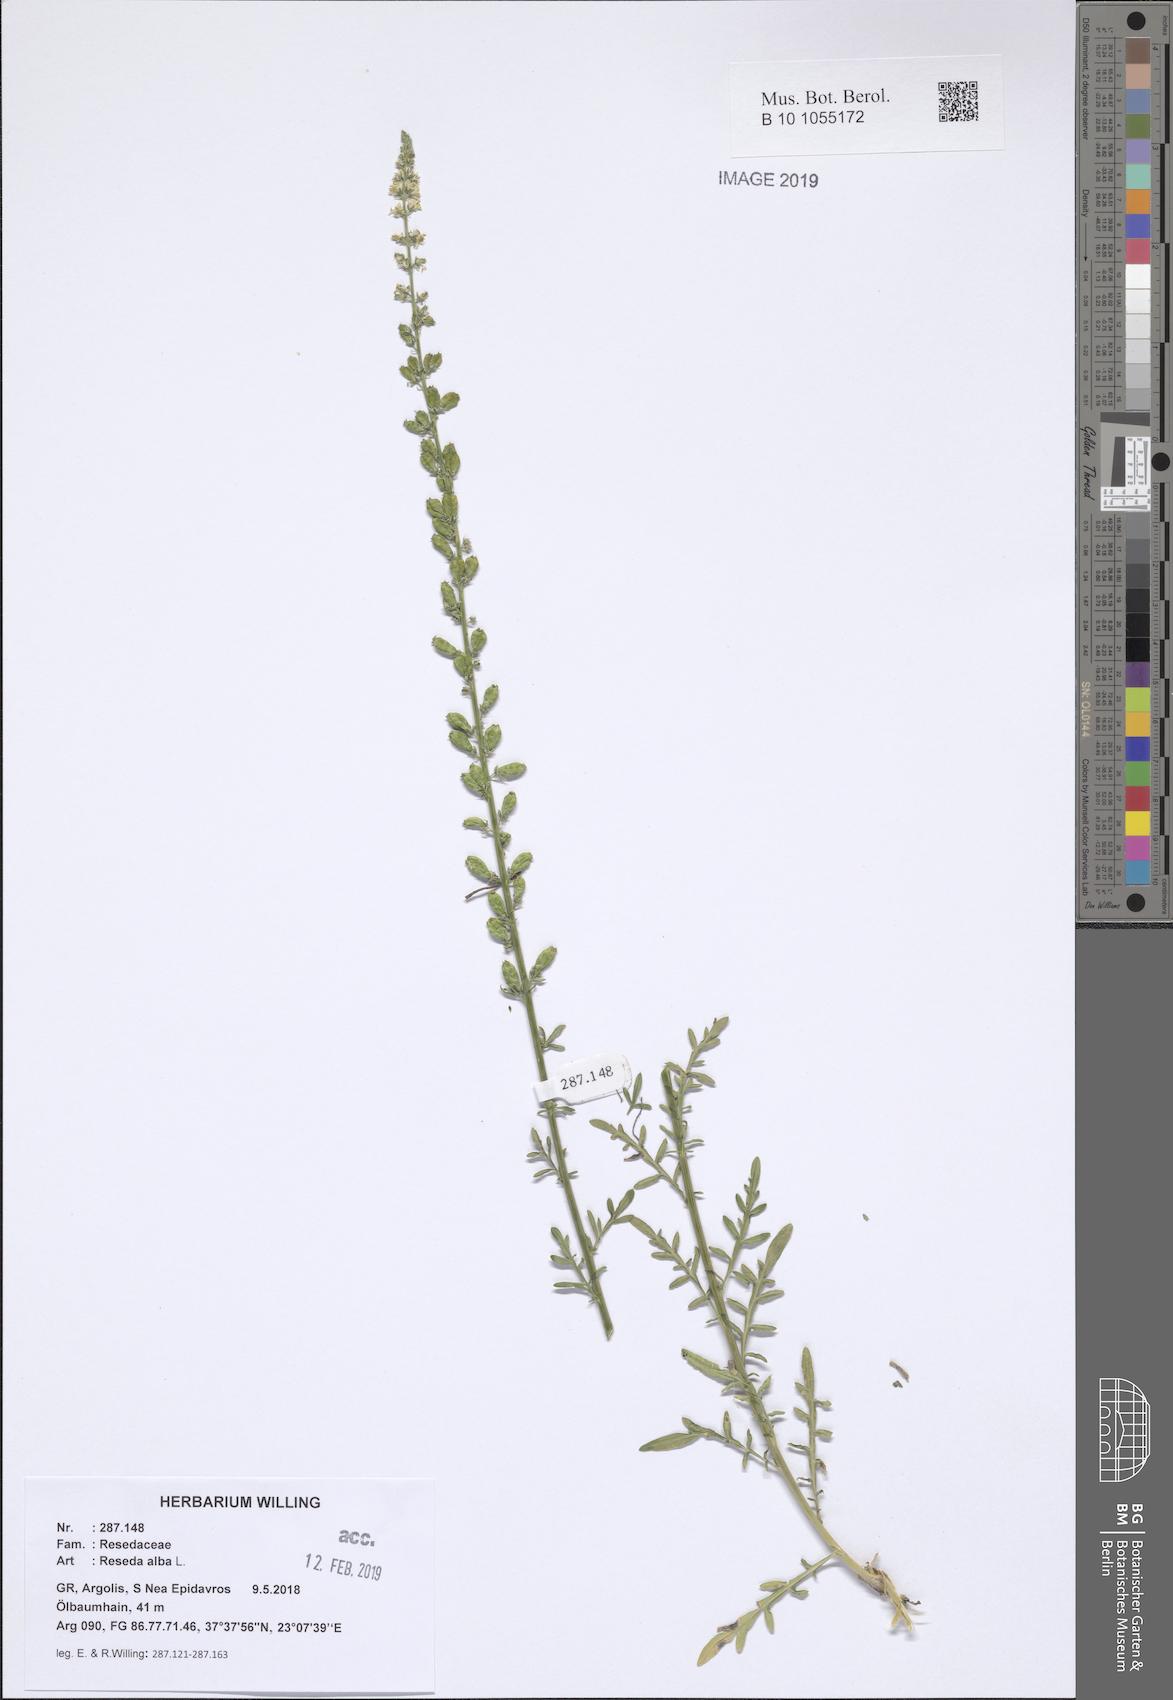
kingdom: Plantae
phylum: Tracheophyta
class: Magnoliopsida
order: Brassicales
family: Resedaceae
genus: Reseda
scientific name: Reseda alba
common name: White mignonette
